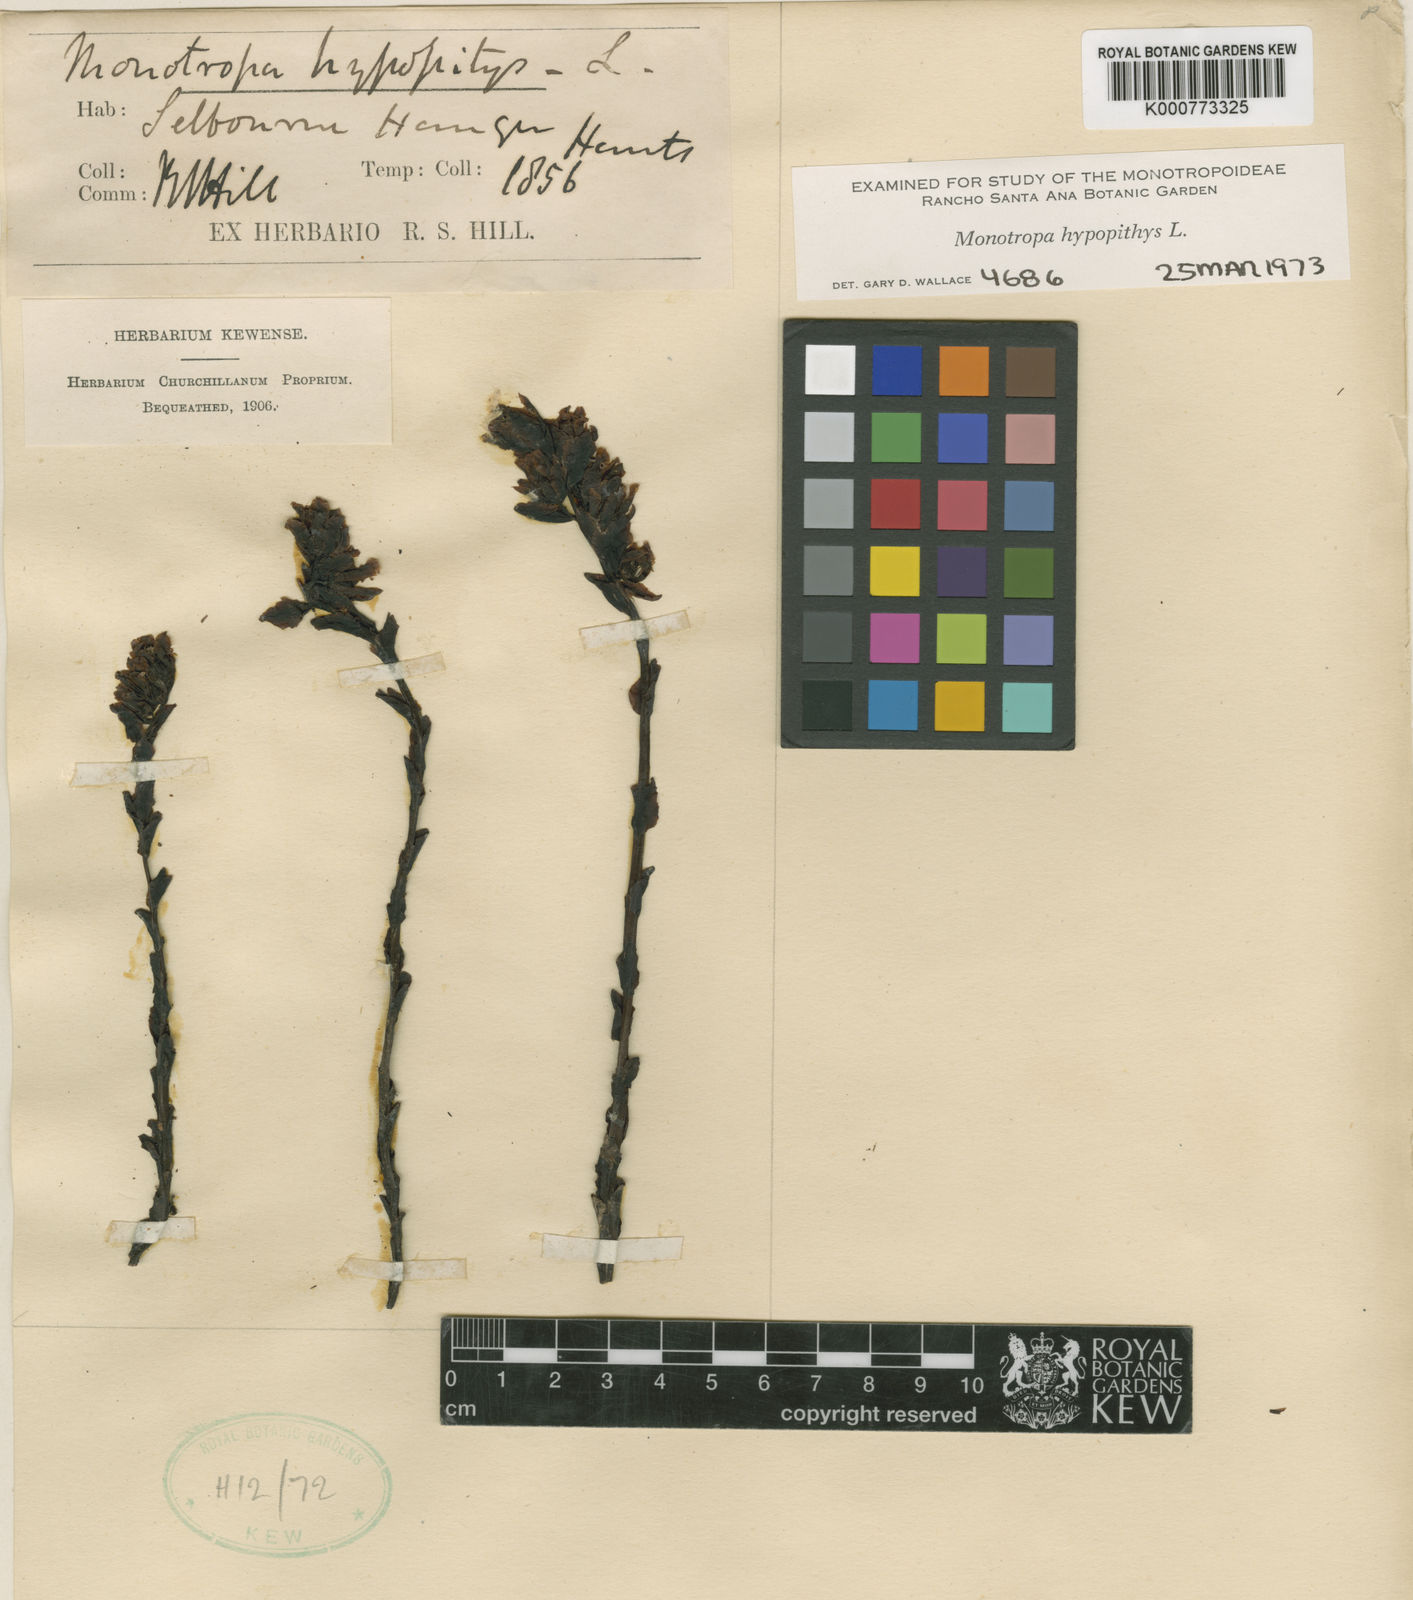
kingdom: Plantae
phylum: Tracheophyta
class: Magnoliopsida
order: Ericales
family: Ericaceae
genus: Monotropa
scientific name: Monotropa
